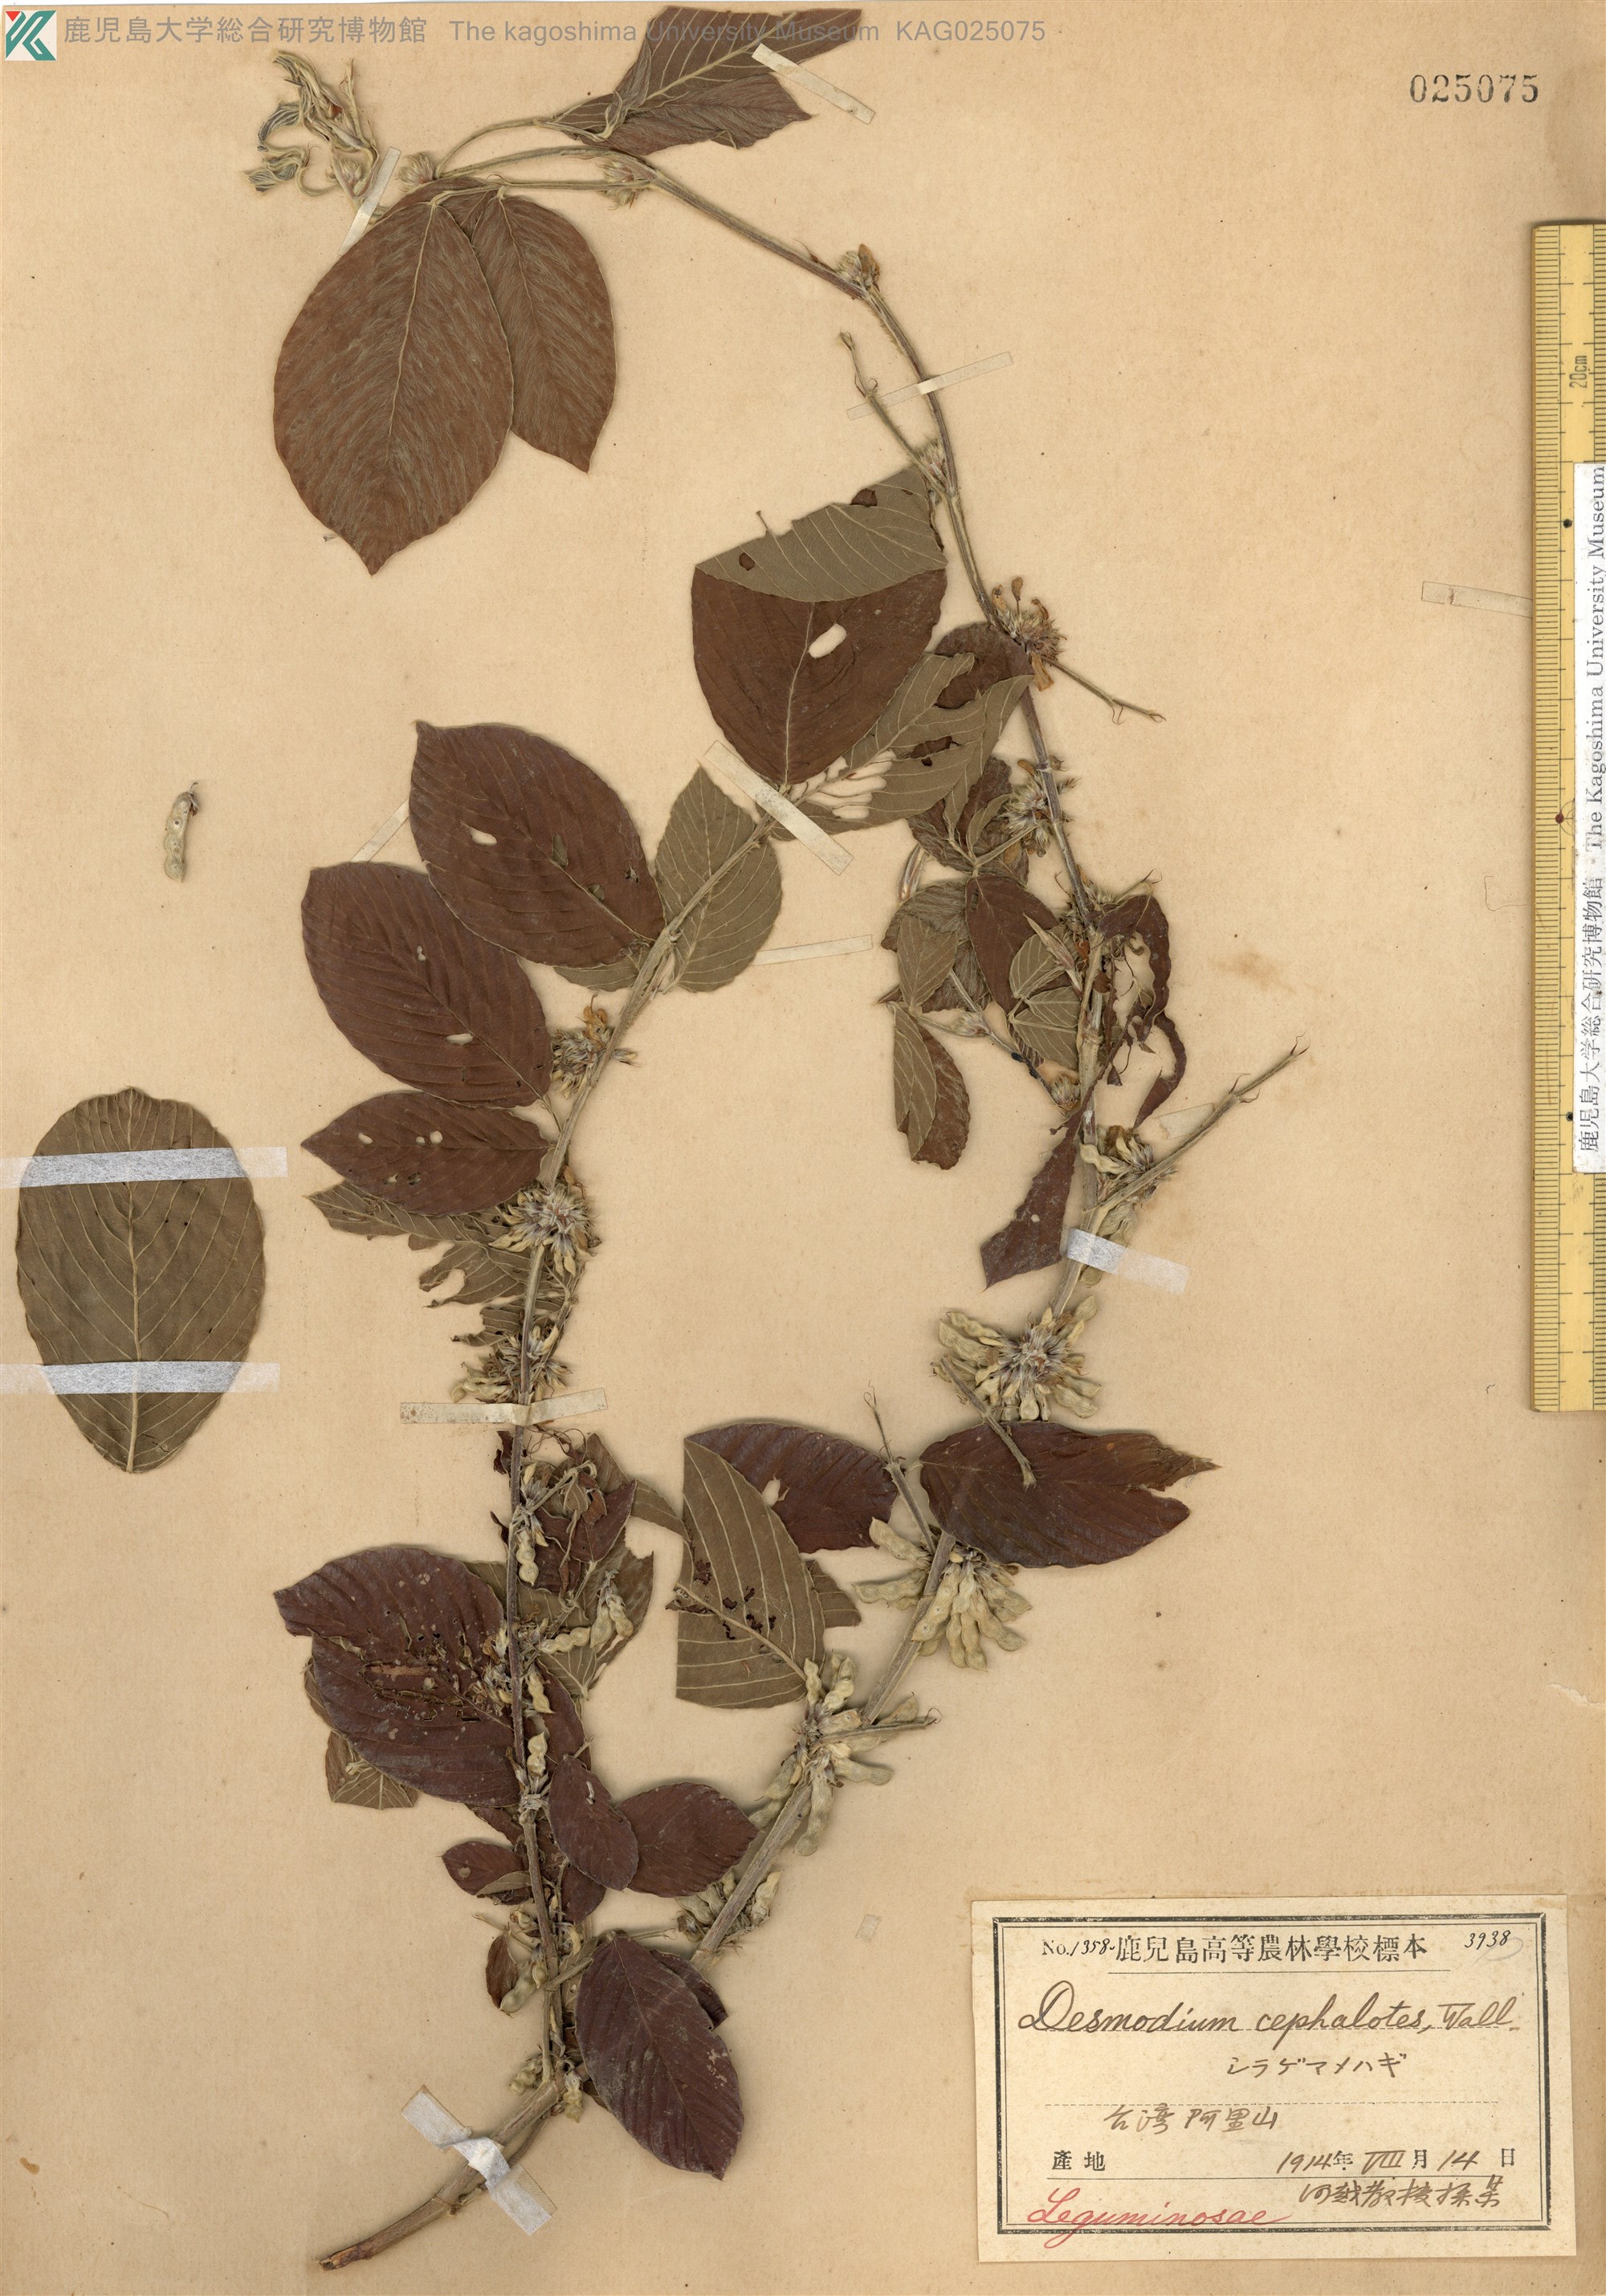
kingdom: Plantae
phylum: Tracheophyta
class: Magnoliopsida
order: Fabales
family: Fabaceae
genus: Dendrolobium
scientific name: Dendrolobium triangulare
